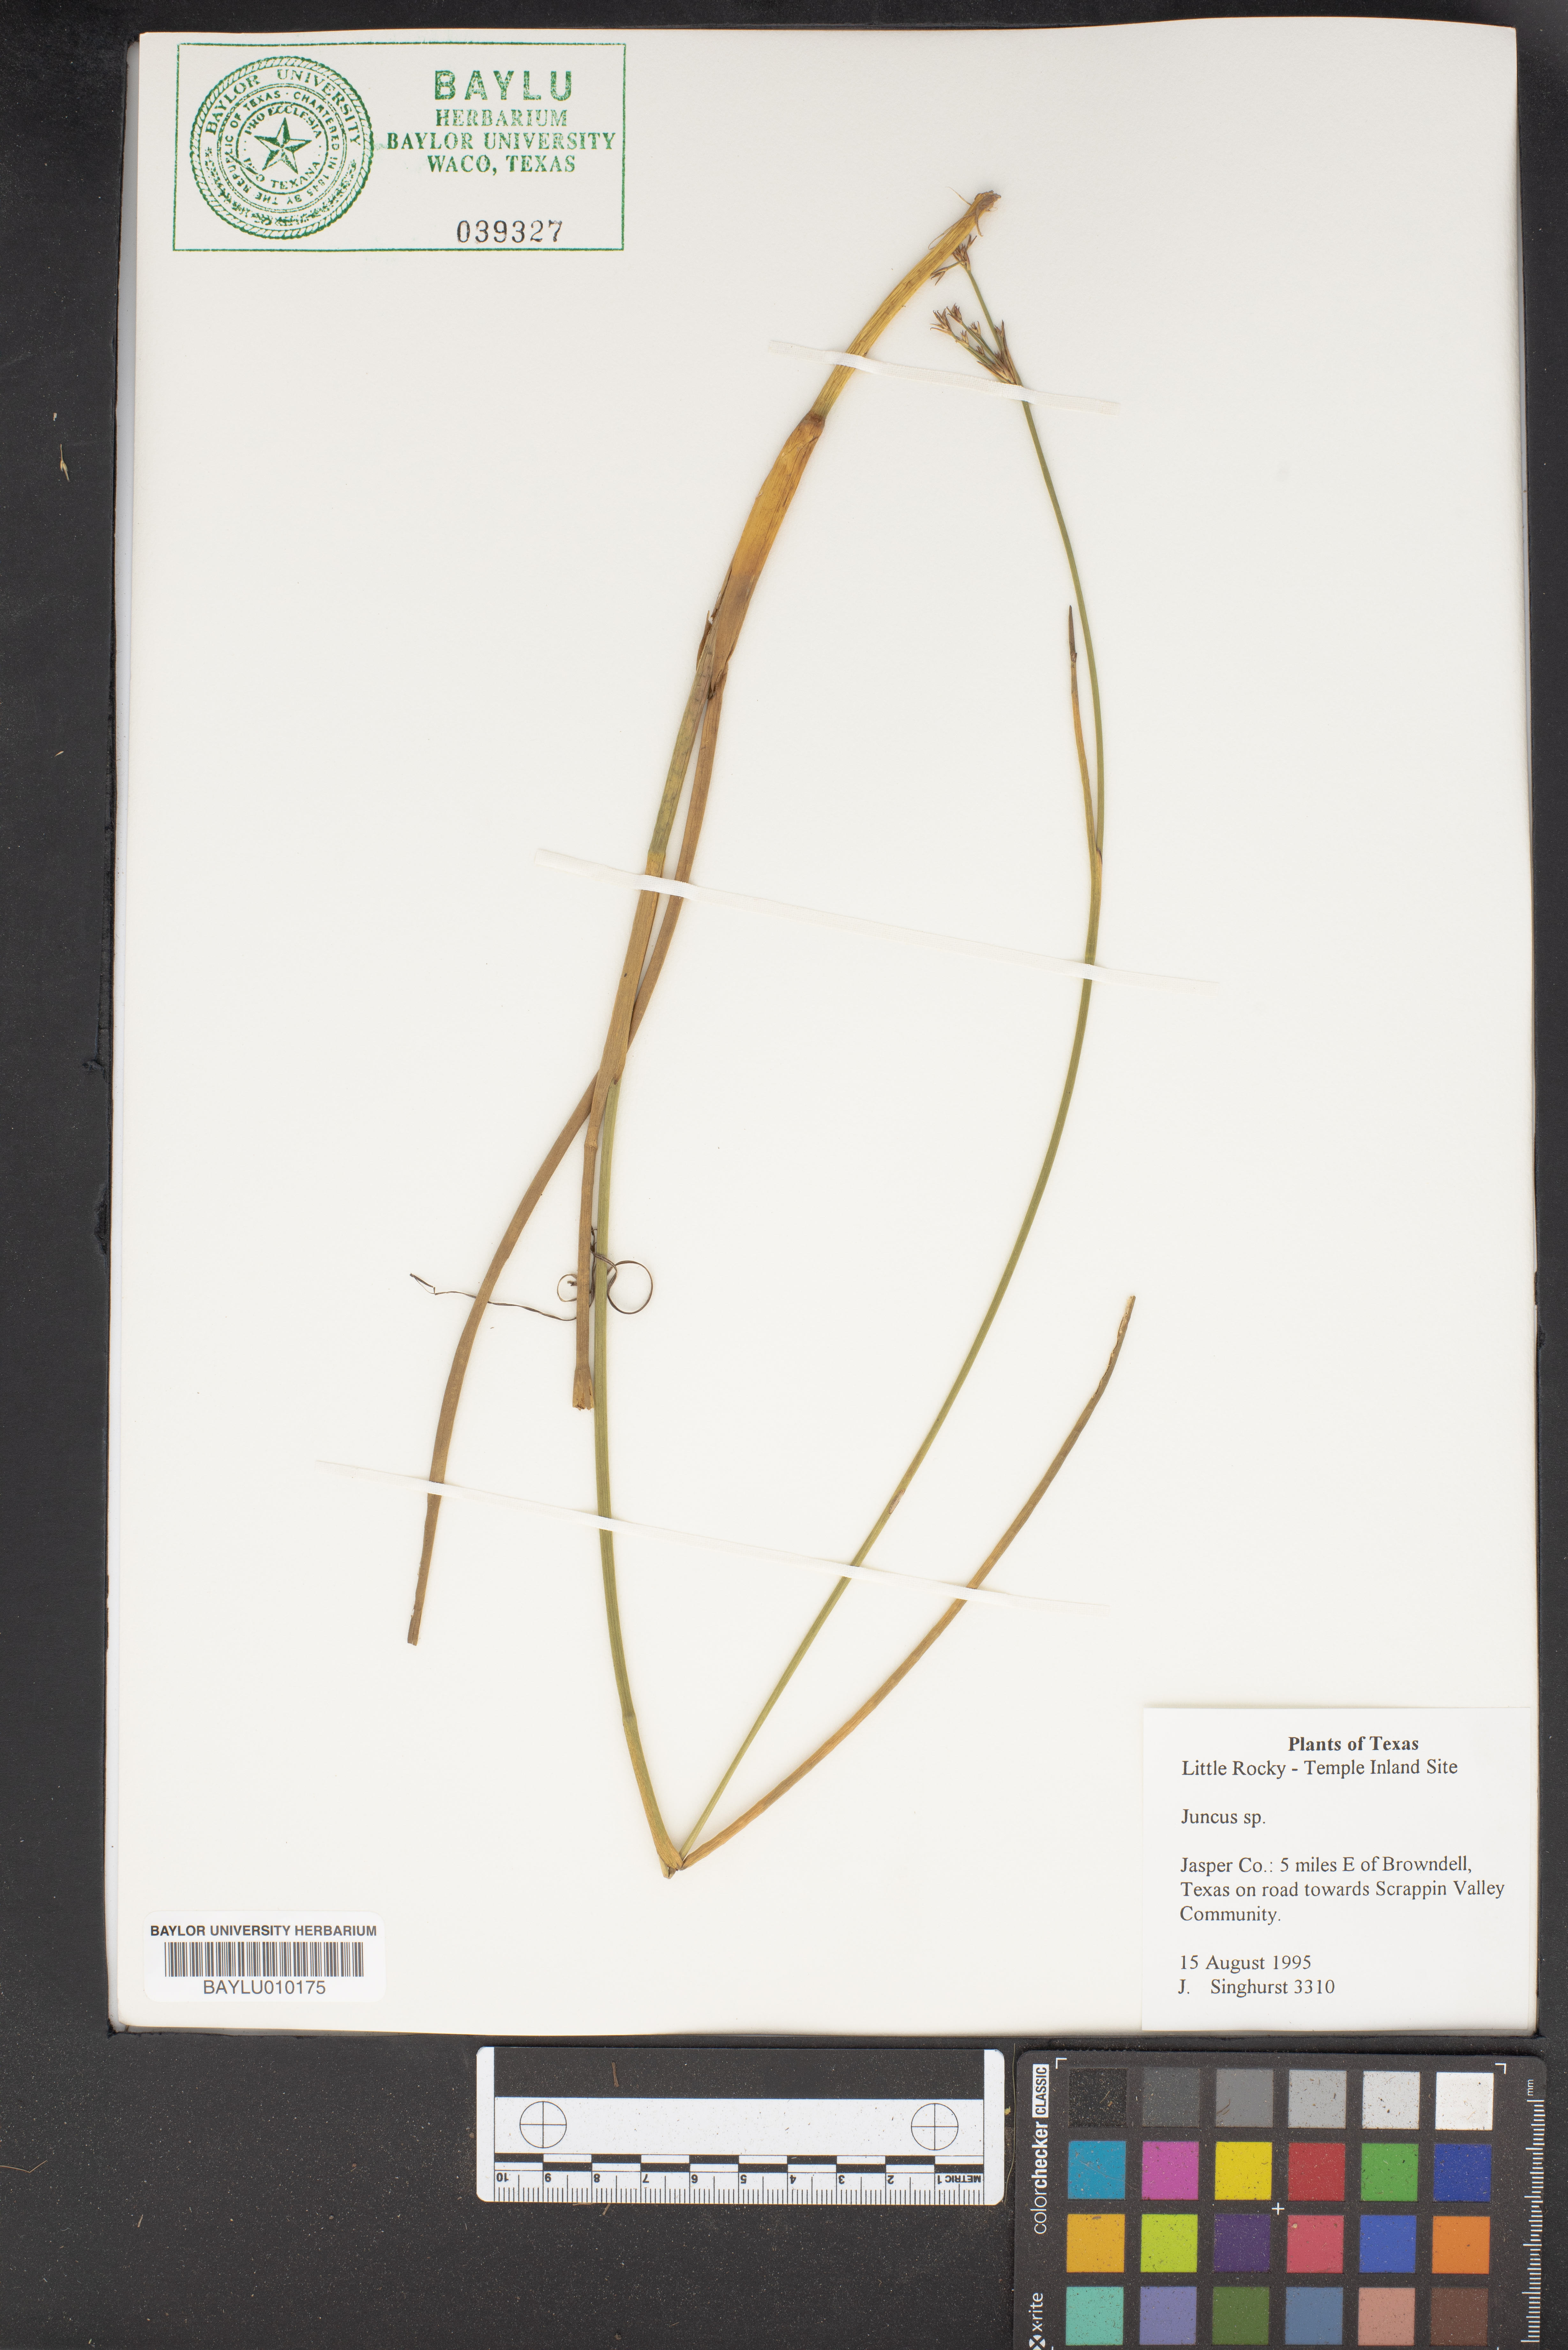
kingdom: Plantae
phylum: Tracheophyta
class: Liliopsida
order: Poales
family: Juncaceae
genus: Juncus
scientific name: Juncus
